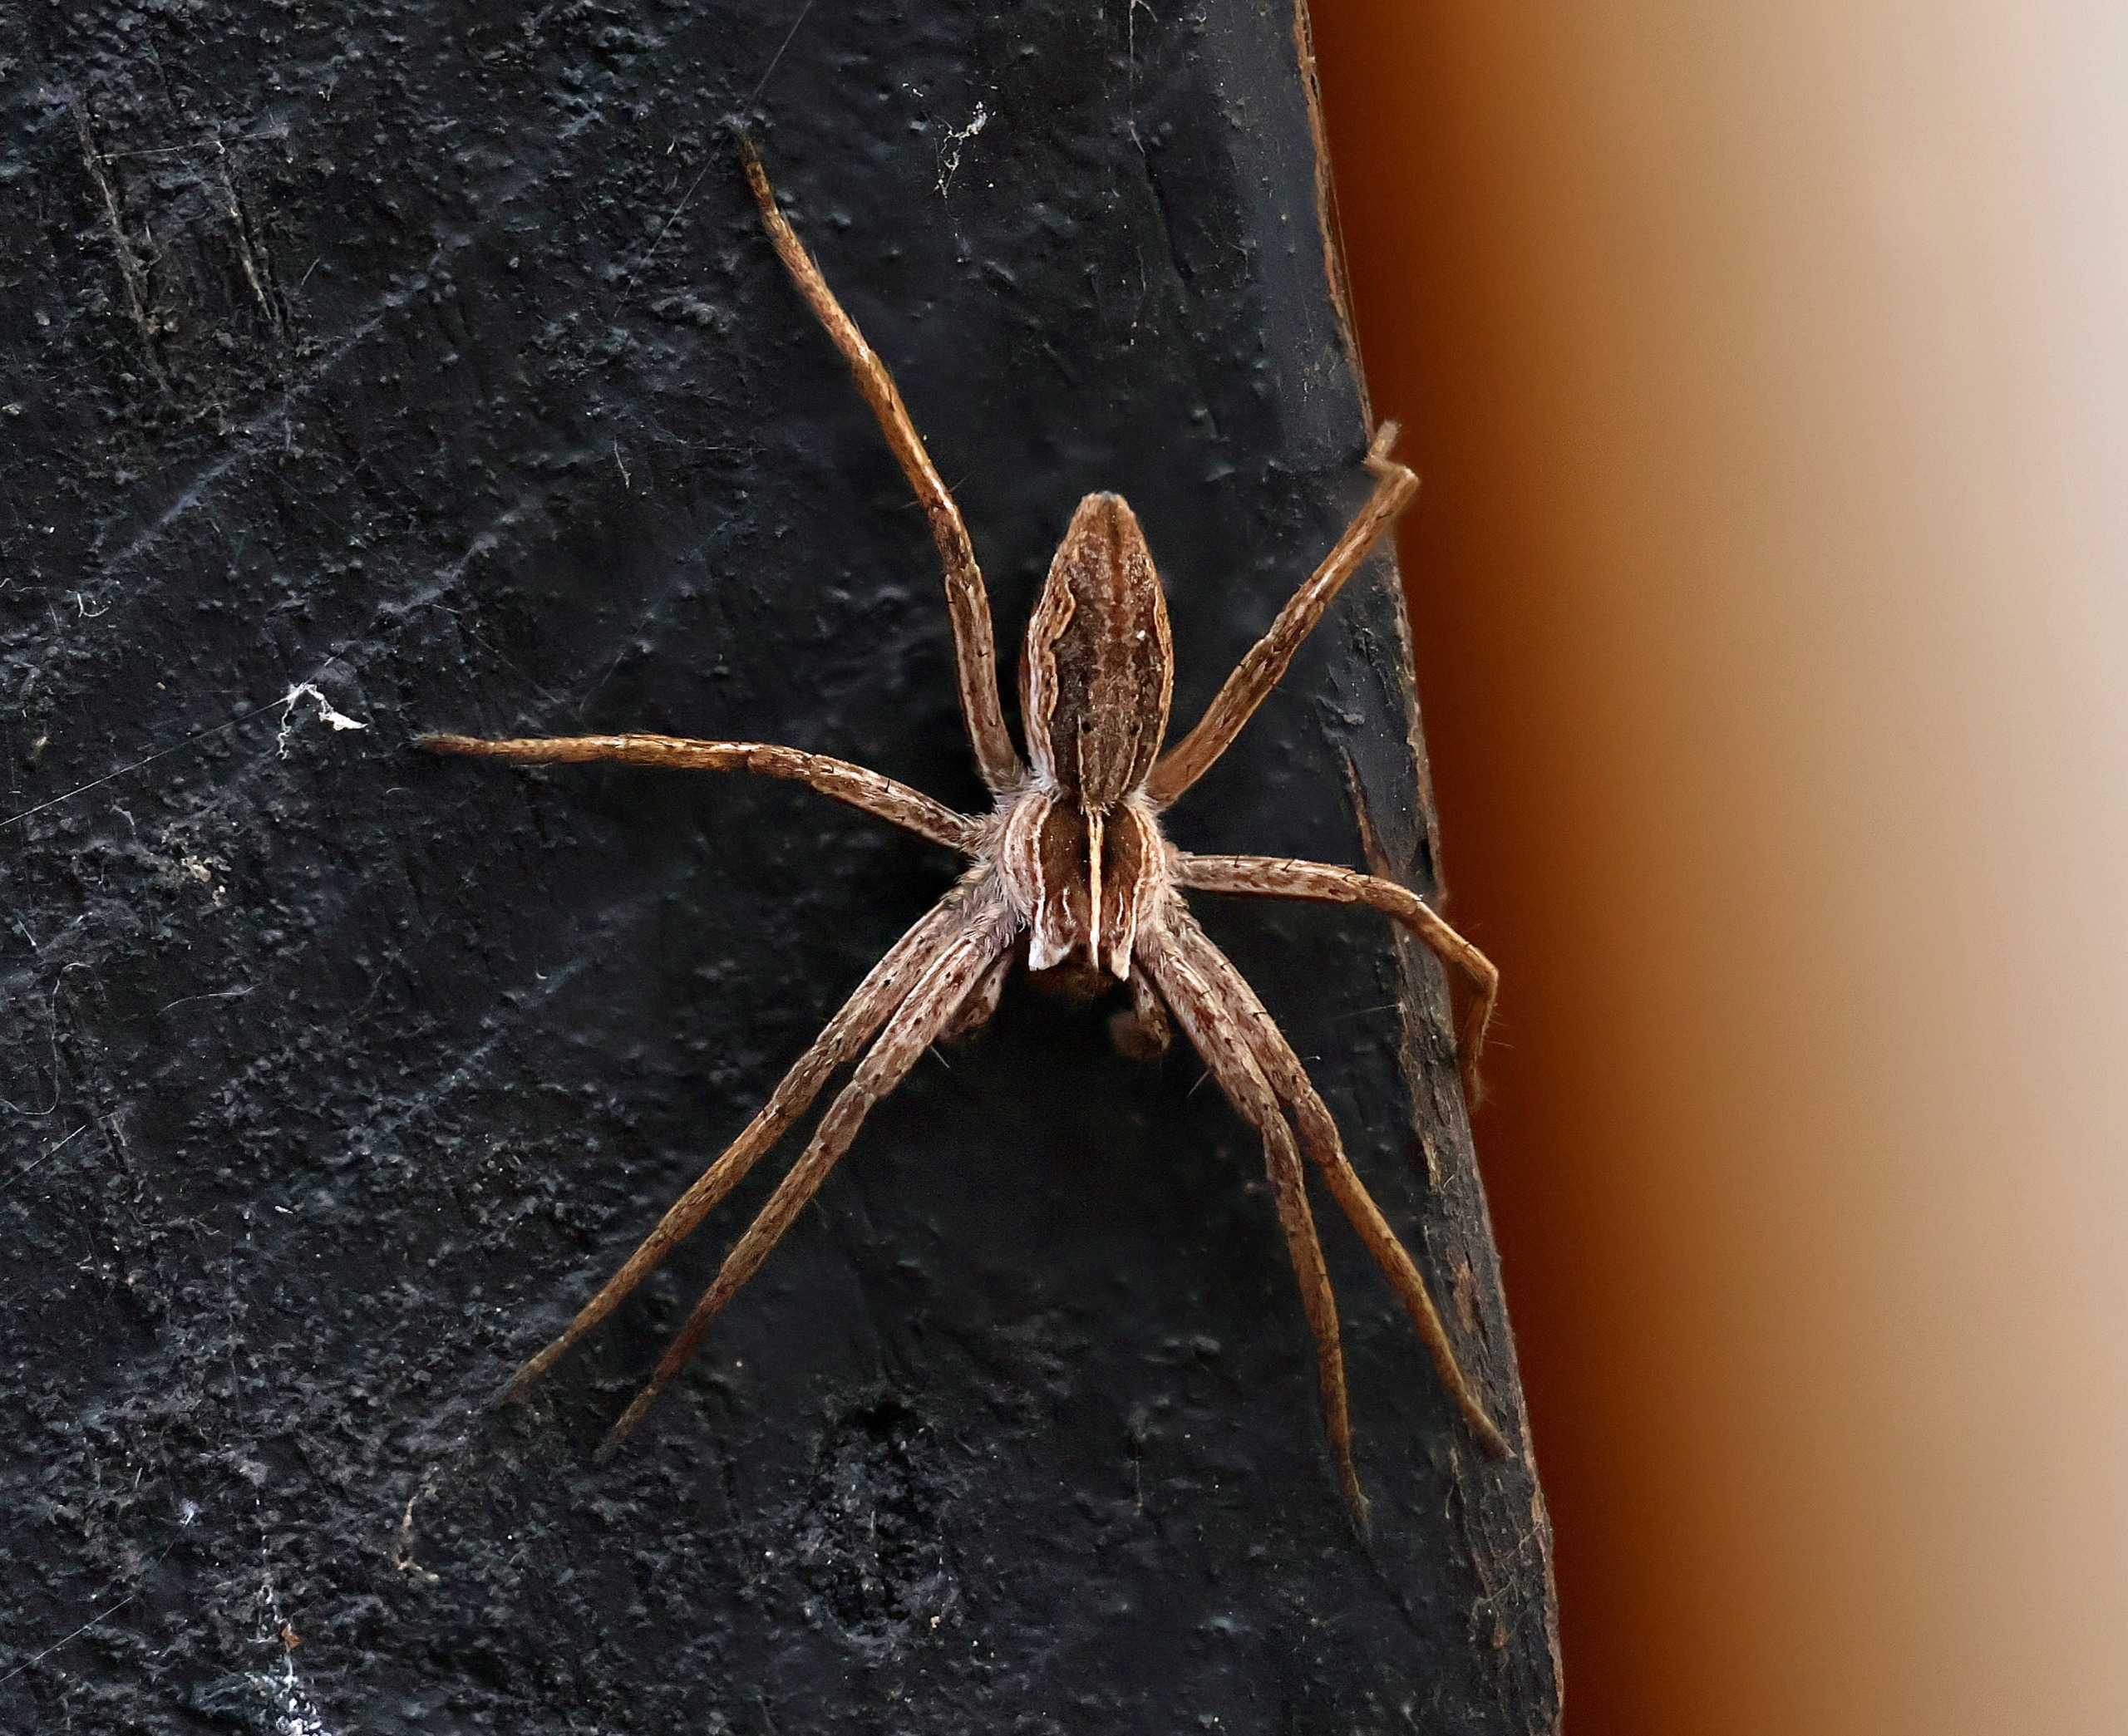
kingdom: Animalia
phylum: Arthropoda
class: Arachnida
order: Araneae
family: Pisauridae
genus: Pisaura
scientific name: Pisaura mirabilis
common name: Almindelig rovedderkop
